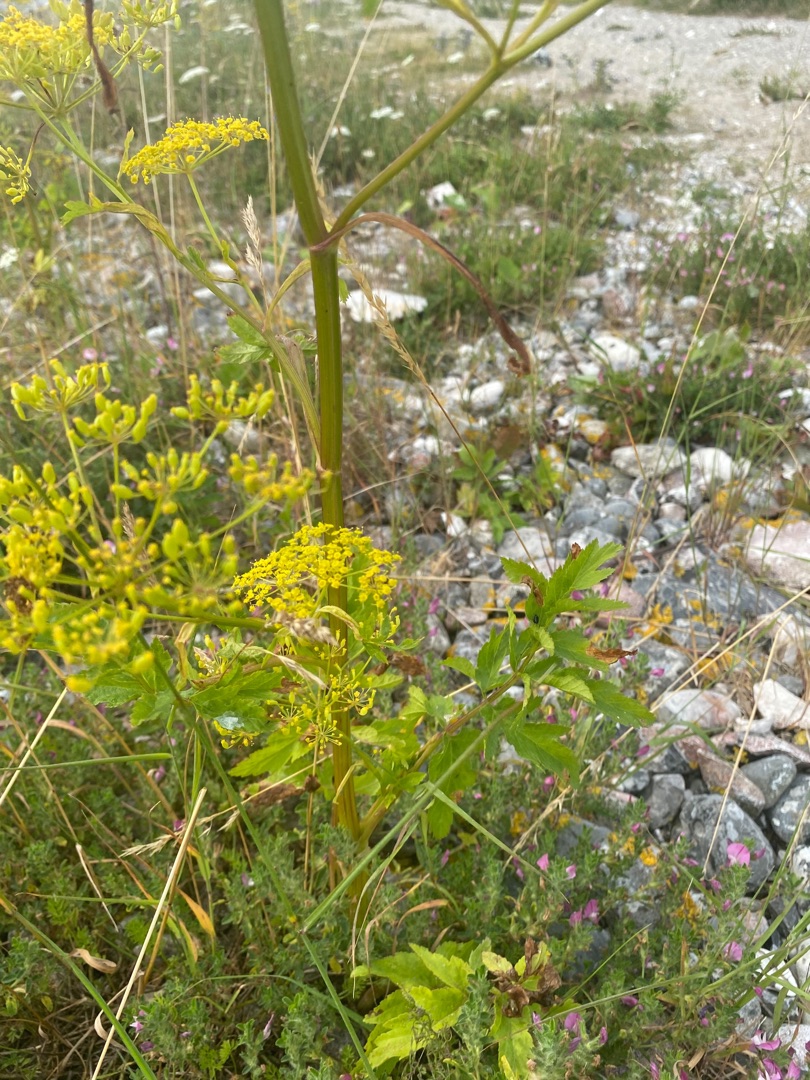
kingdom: Plantae
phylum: Tracheophyta
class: Magnoliopsida
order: Apiales
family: Apiaceae
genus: Pastinaca
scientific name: Pastinaca sativa
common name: Pastinak
